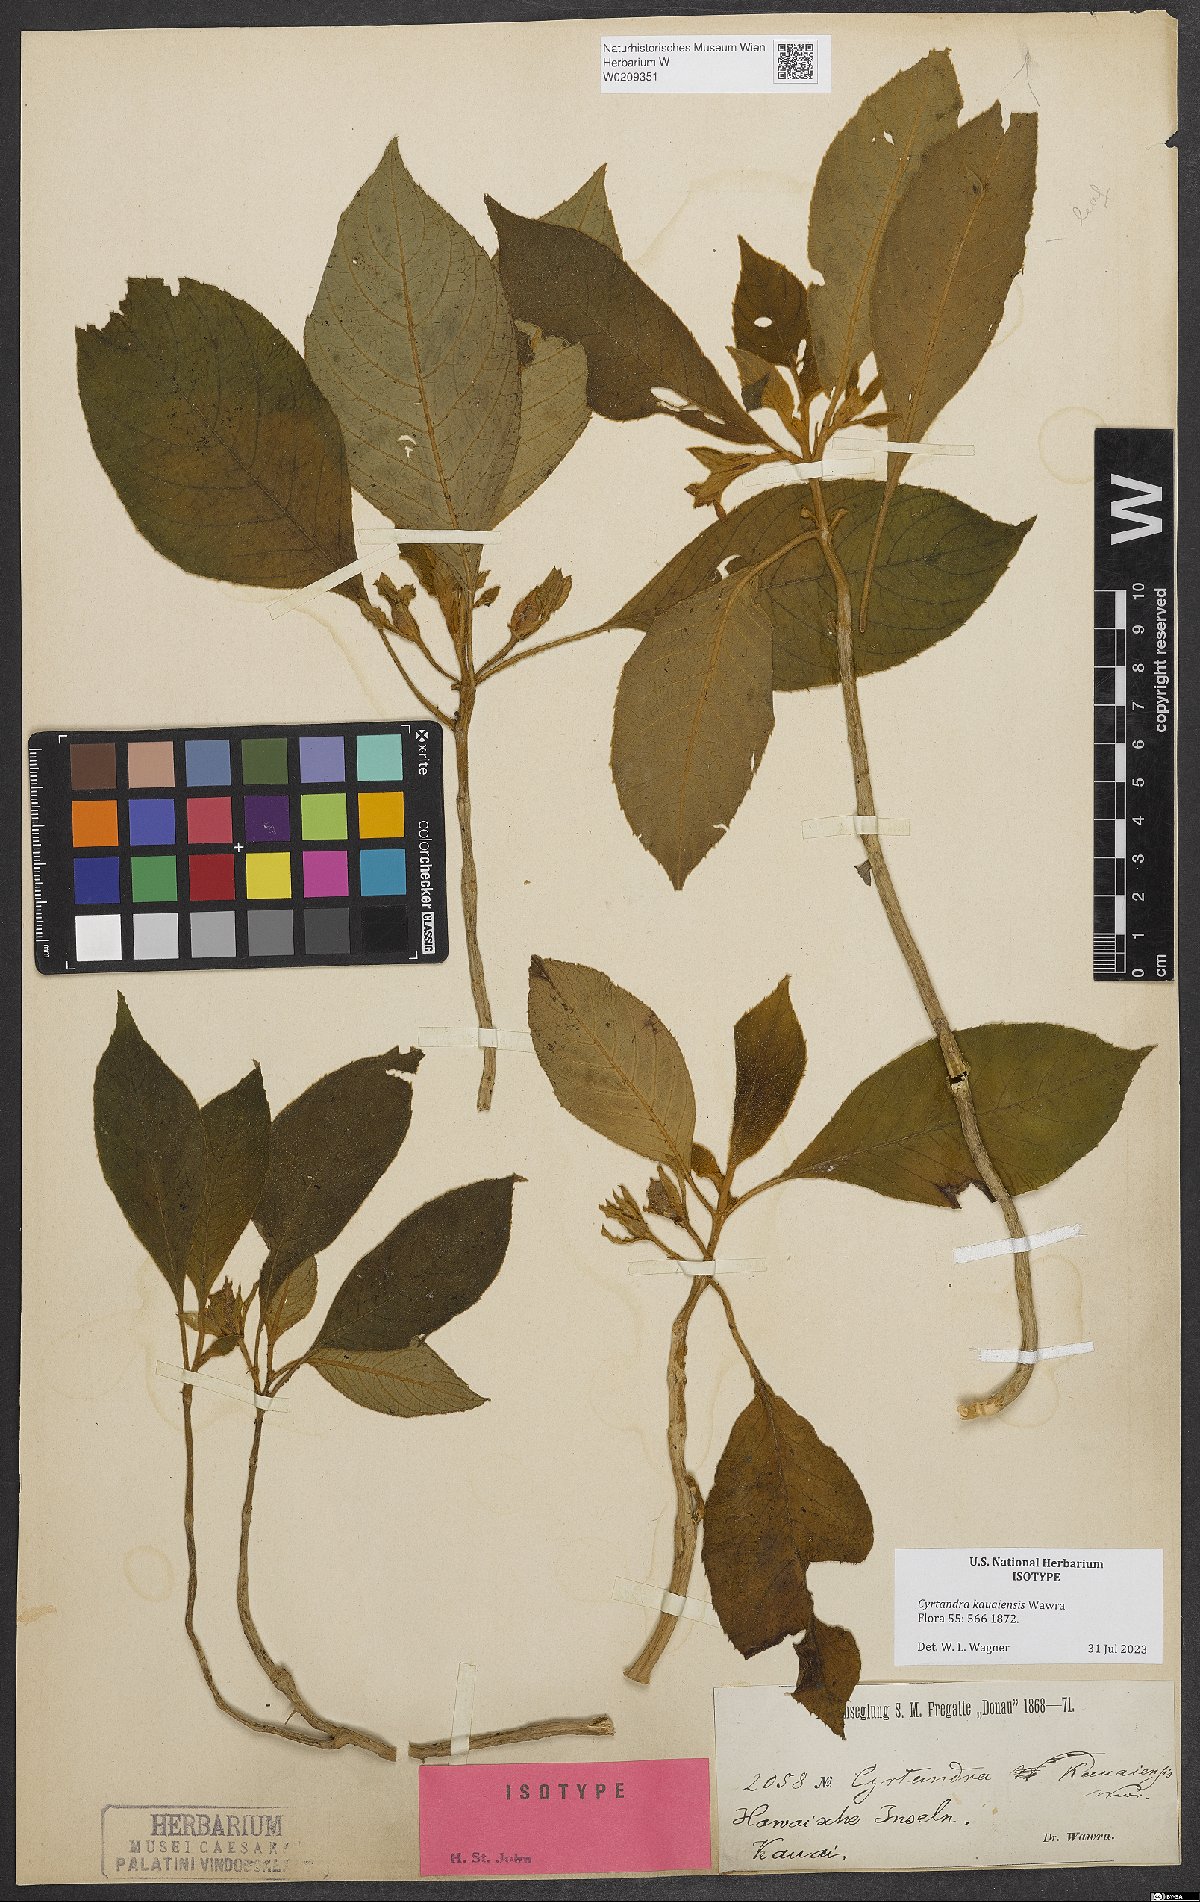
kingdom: Plantae
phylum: Tracheophyta
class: Magnoliopsida
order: Lamiales
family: Gesneriaceae
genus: Cyrtandra
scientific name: Cyrtandra kauaiensis
